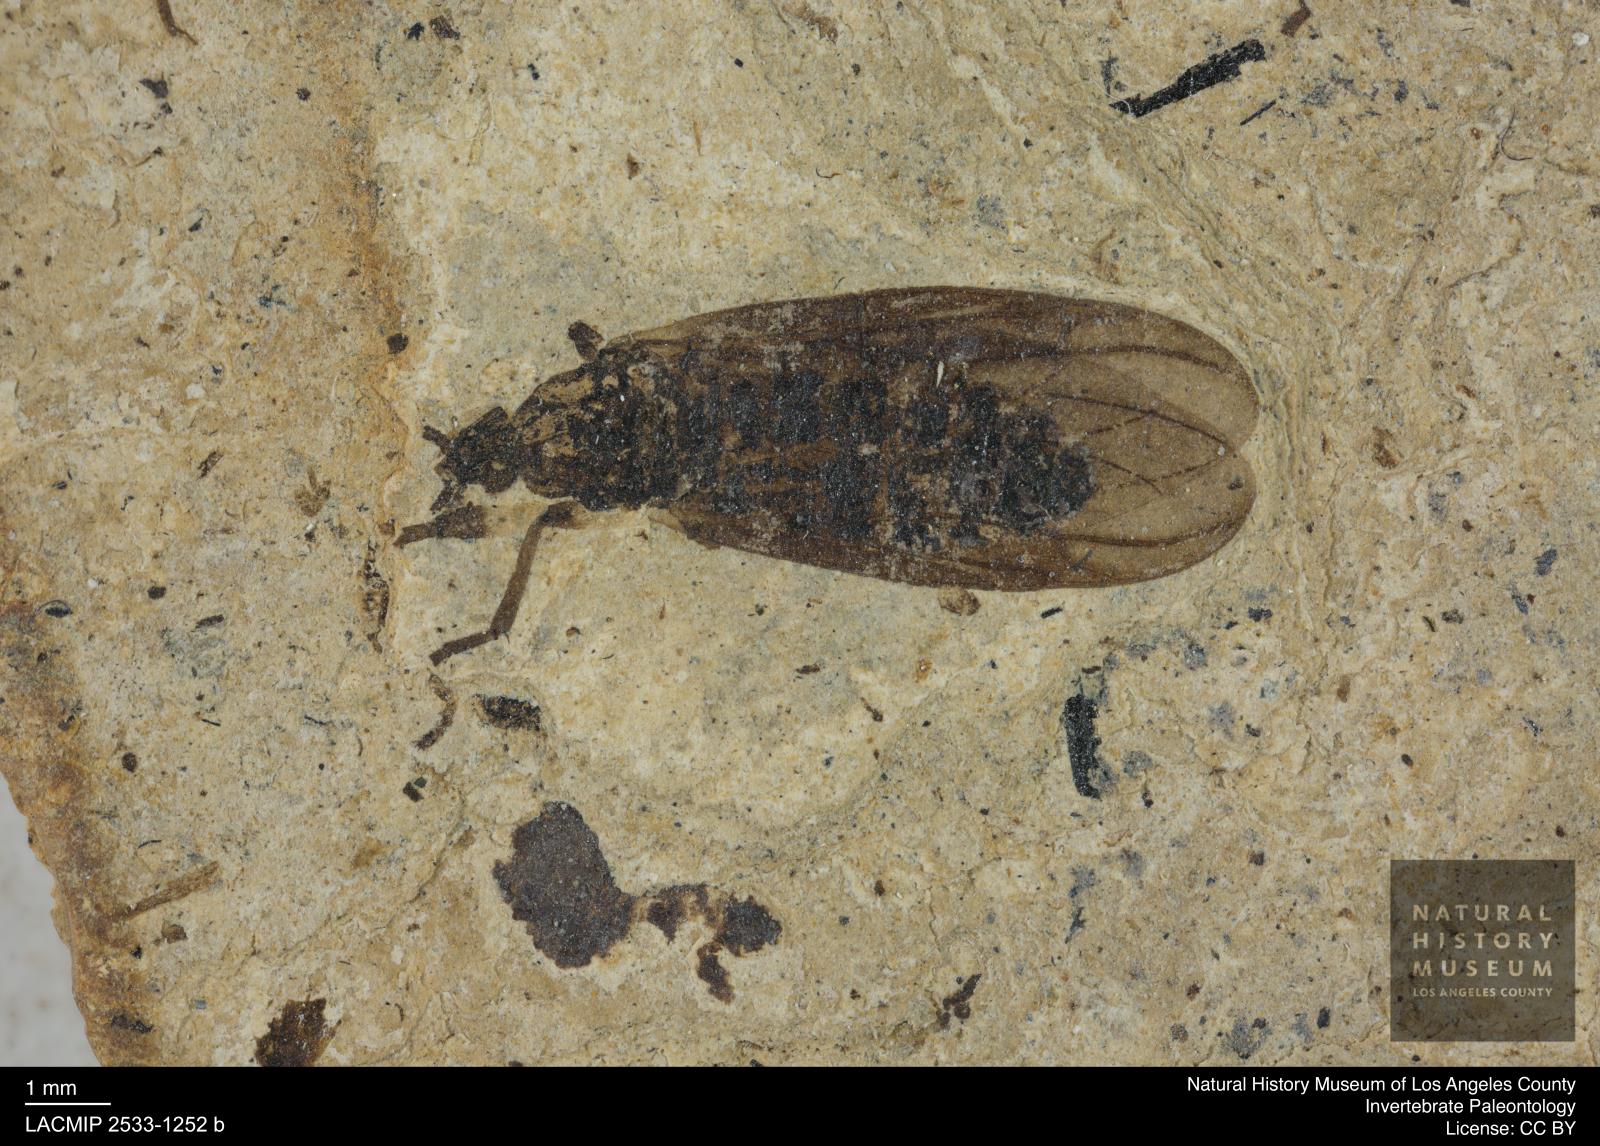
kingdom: Animalia
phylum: Arthropoda
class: Insecta
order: Diptera
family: Bibionidae
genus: Plecia
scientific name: Plecia hypogaea
